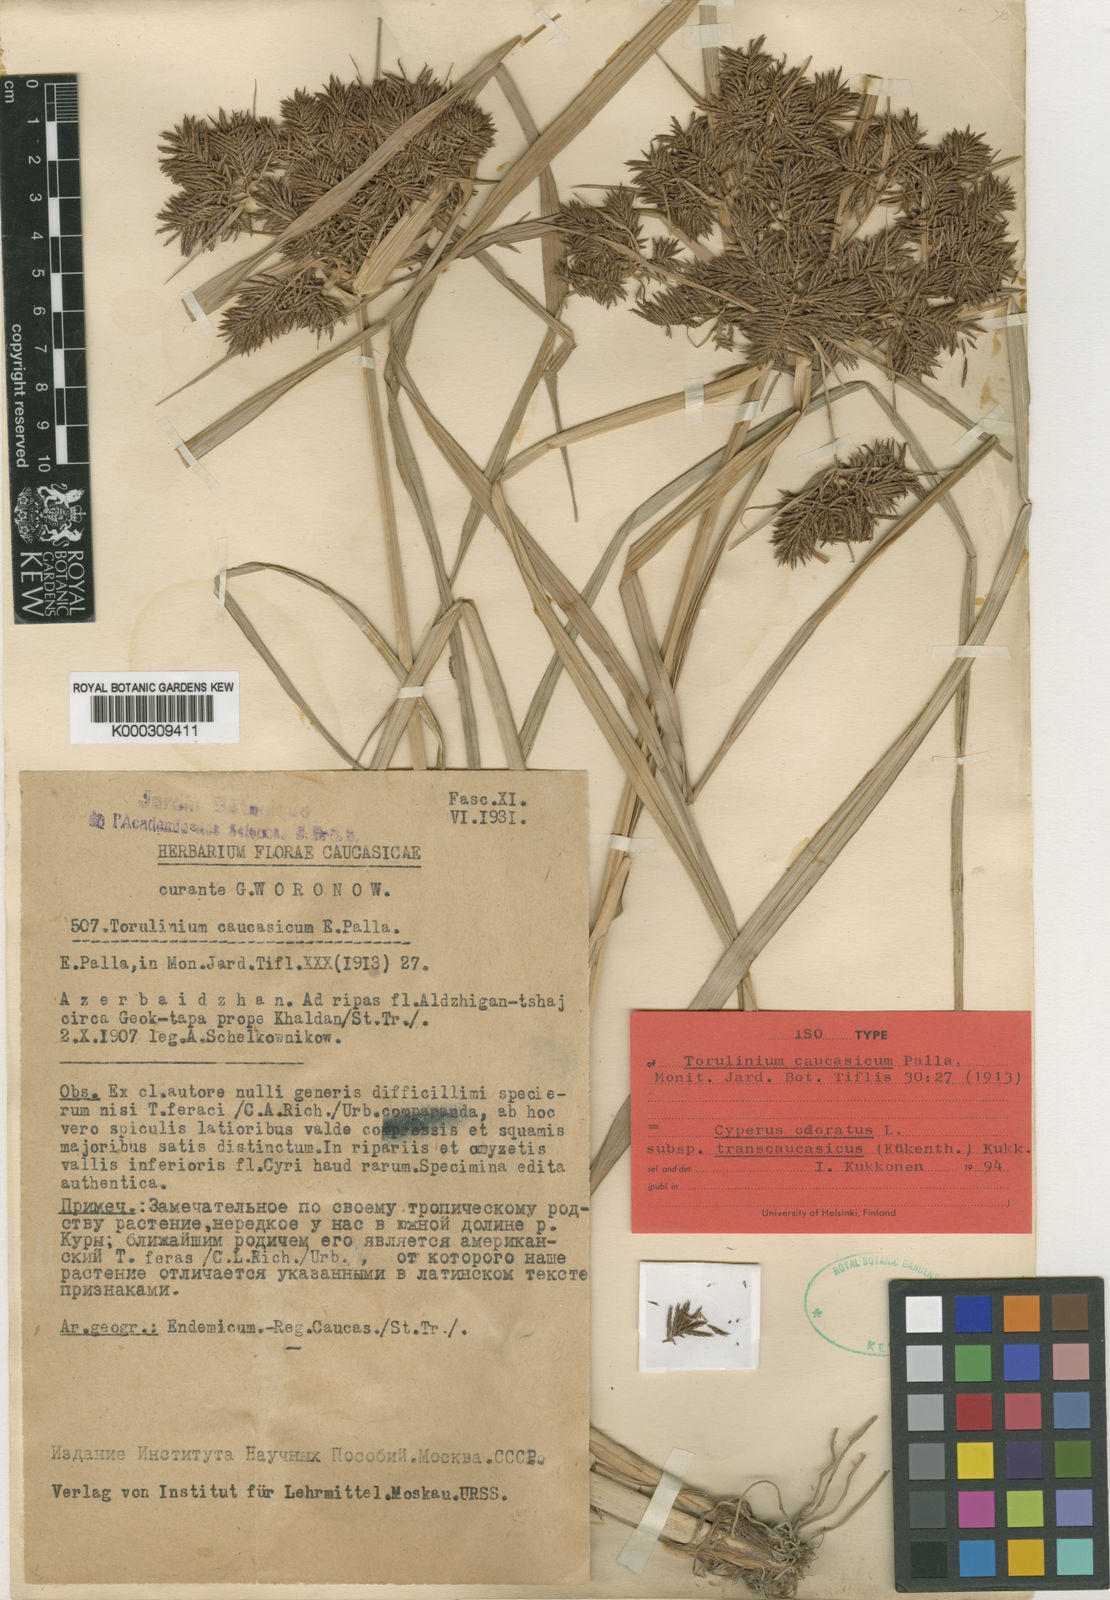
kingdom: Plantae
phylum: Tracheophyta
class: Liliopsida
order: Poales
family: Cyperaceae
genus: Cyperus
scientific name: Cyperus exaltatus
